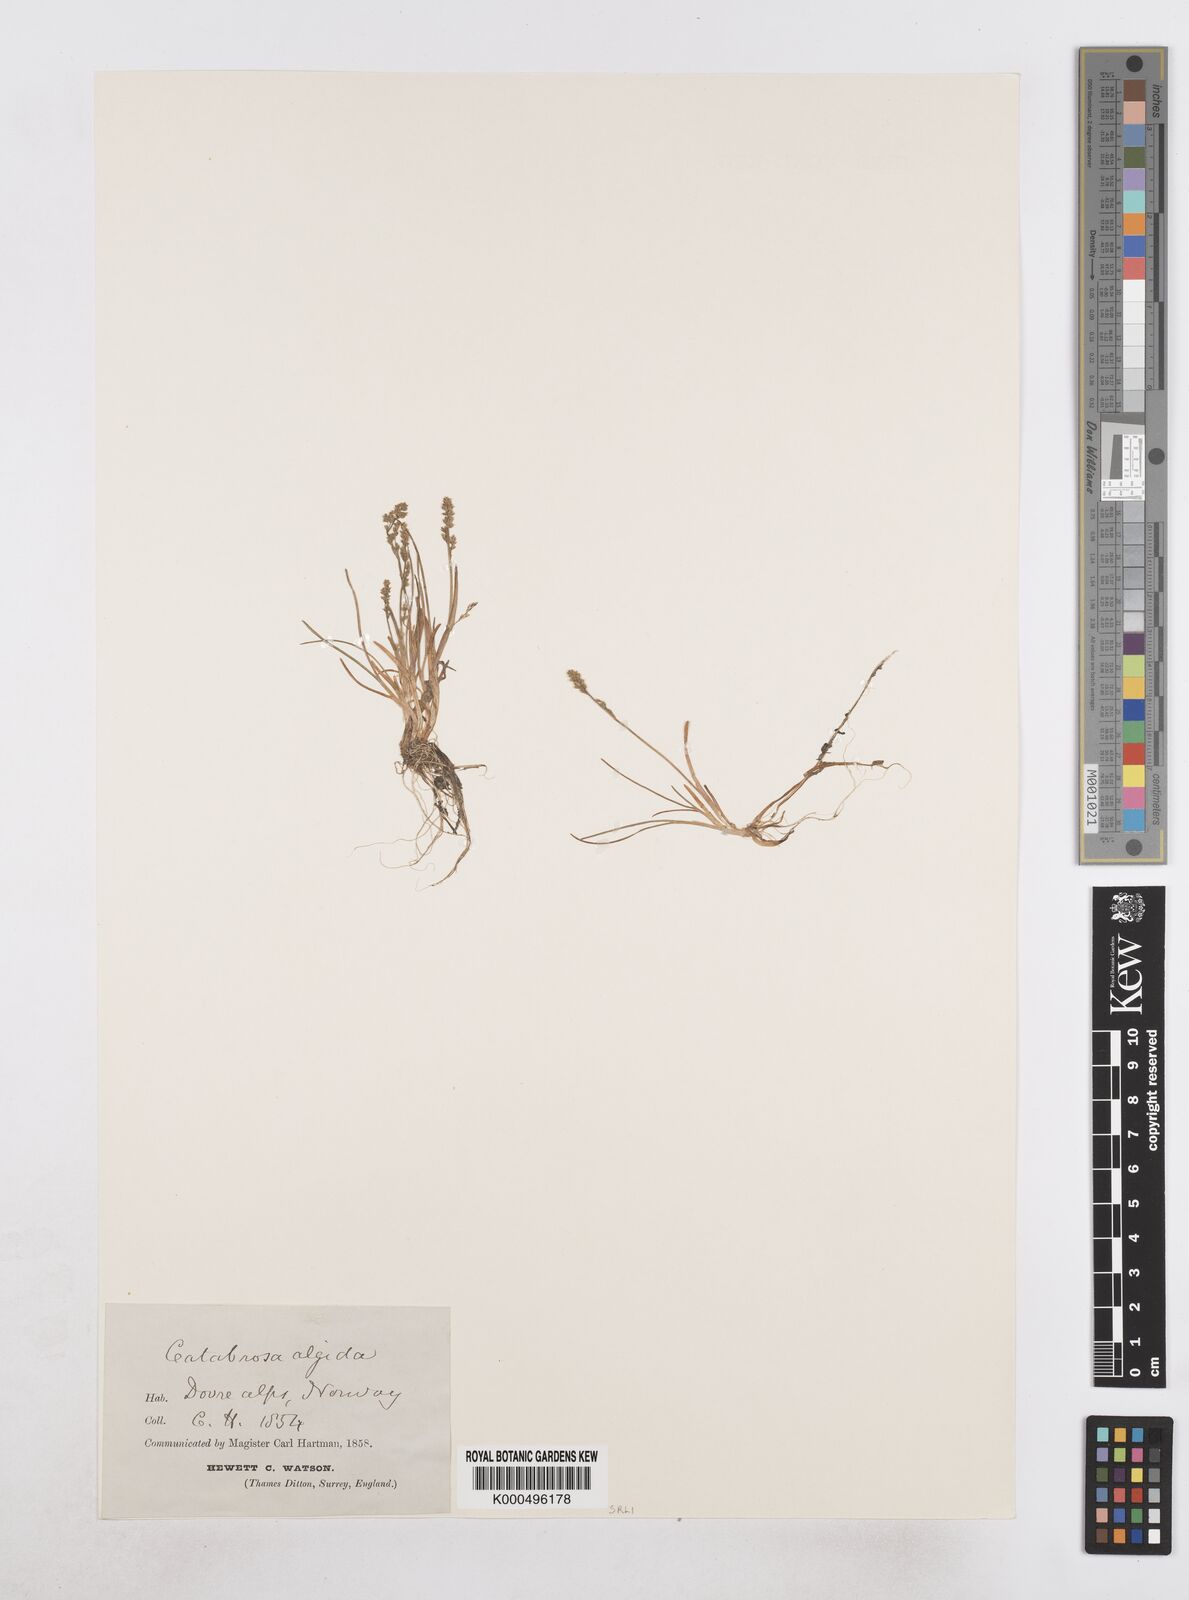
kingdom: Plantae
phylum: Tracheophyta
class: Liliopsida
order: Poales
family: Poaceae
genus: Phippsia
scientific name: Phippsia algida
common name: Ice grass
